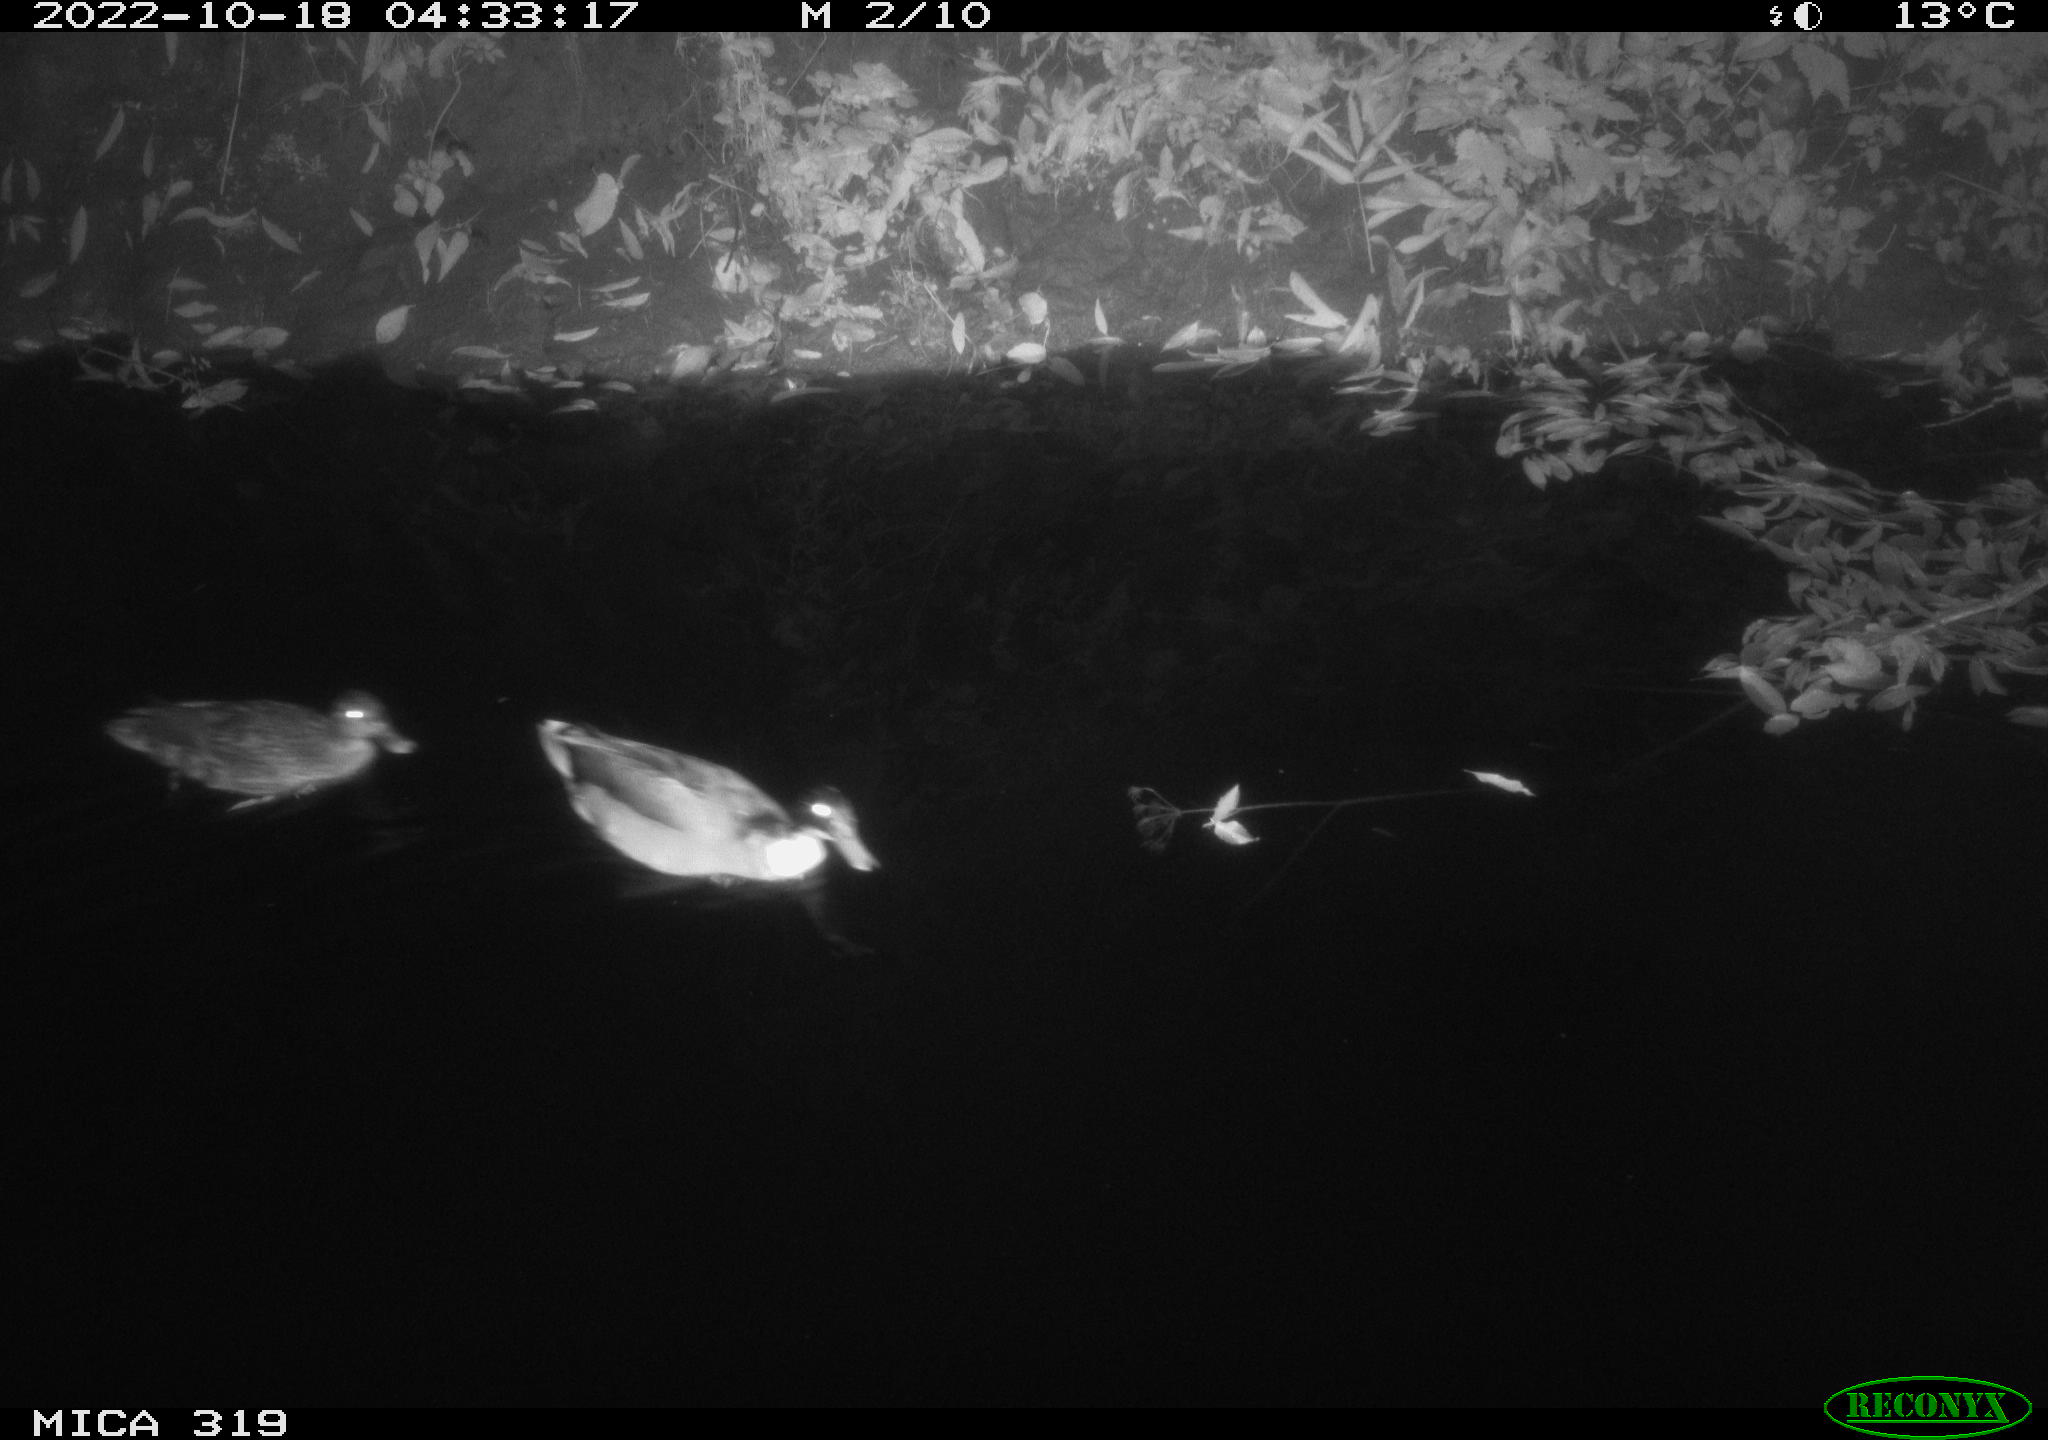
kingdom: Animalia
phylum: Chordata
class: Aves
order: Anseriformes
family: Anatidae
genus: Anas
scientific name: Anas
